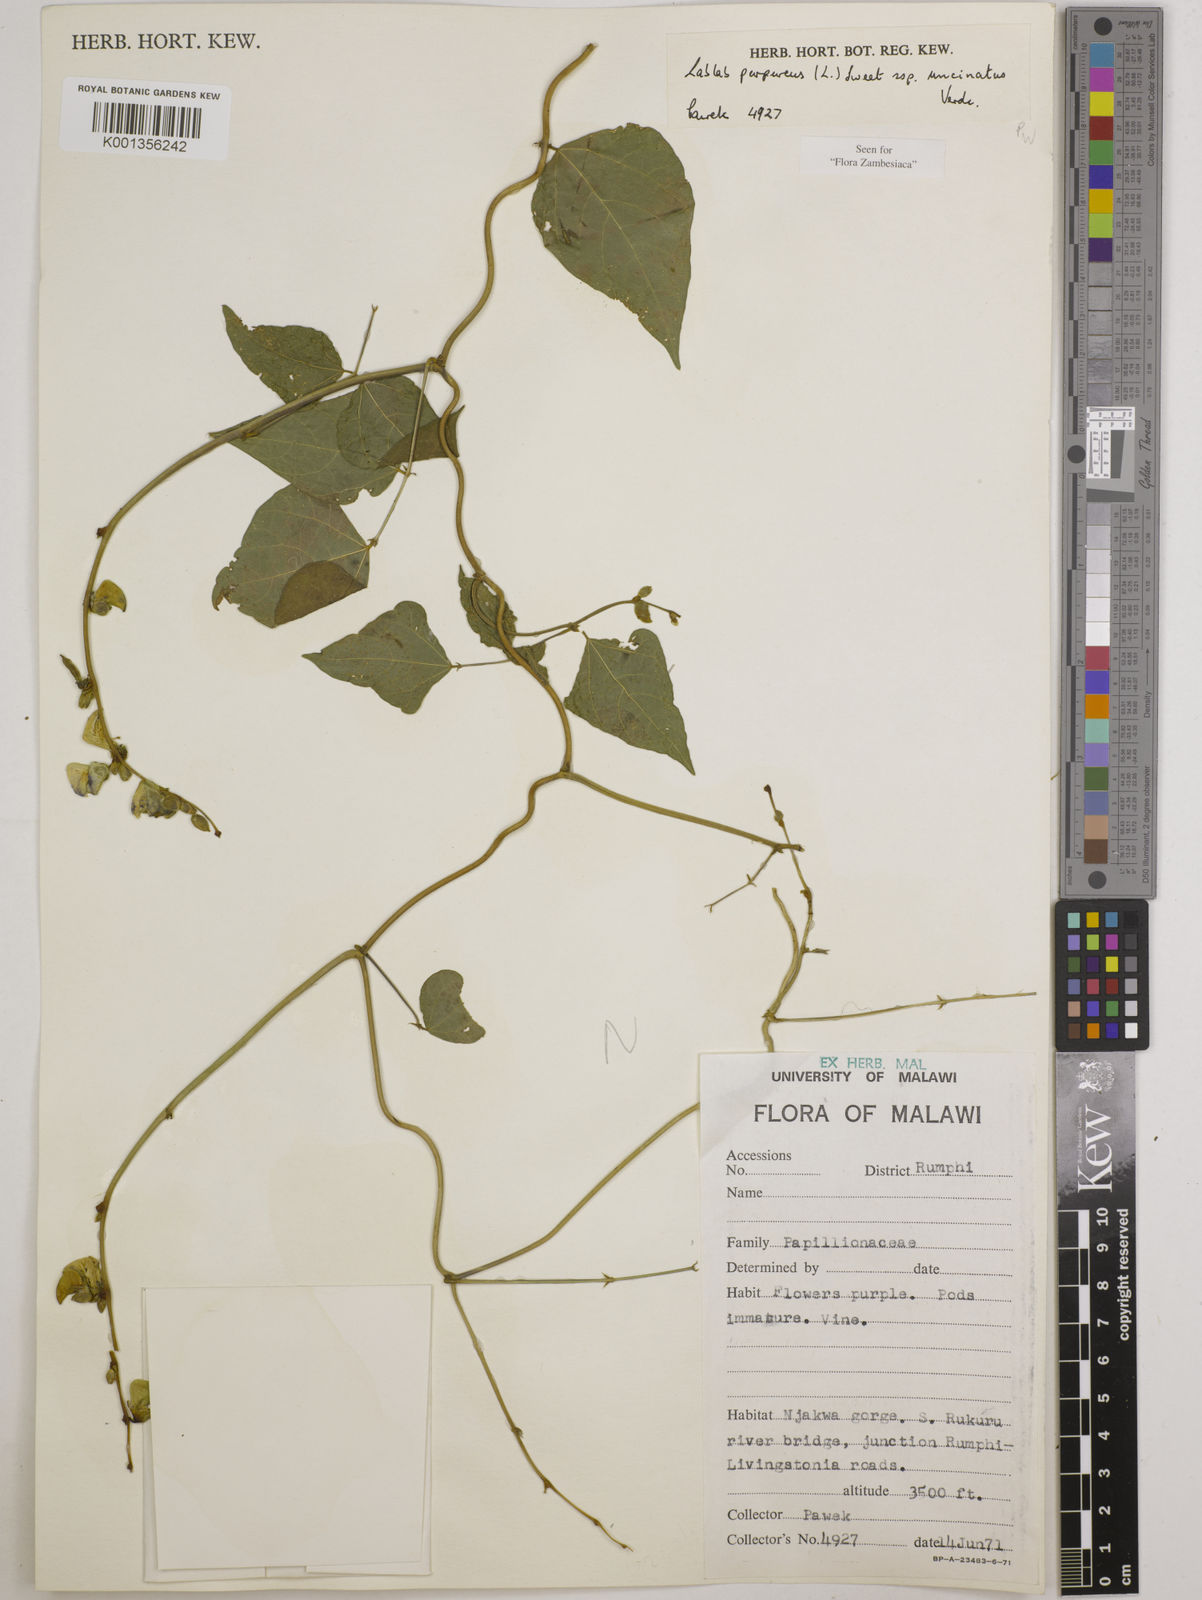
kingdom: Plantae
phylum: Tracheophyta
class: Magnoliopsida
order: Fabales
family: Fabaceae
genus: Lablab
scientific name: Lablab purpureus
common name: Lablab-bean
